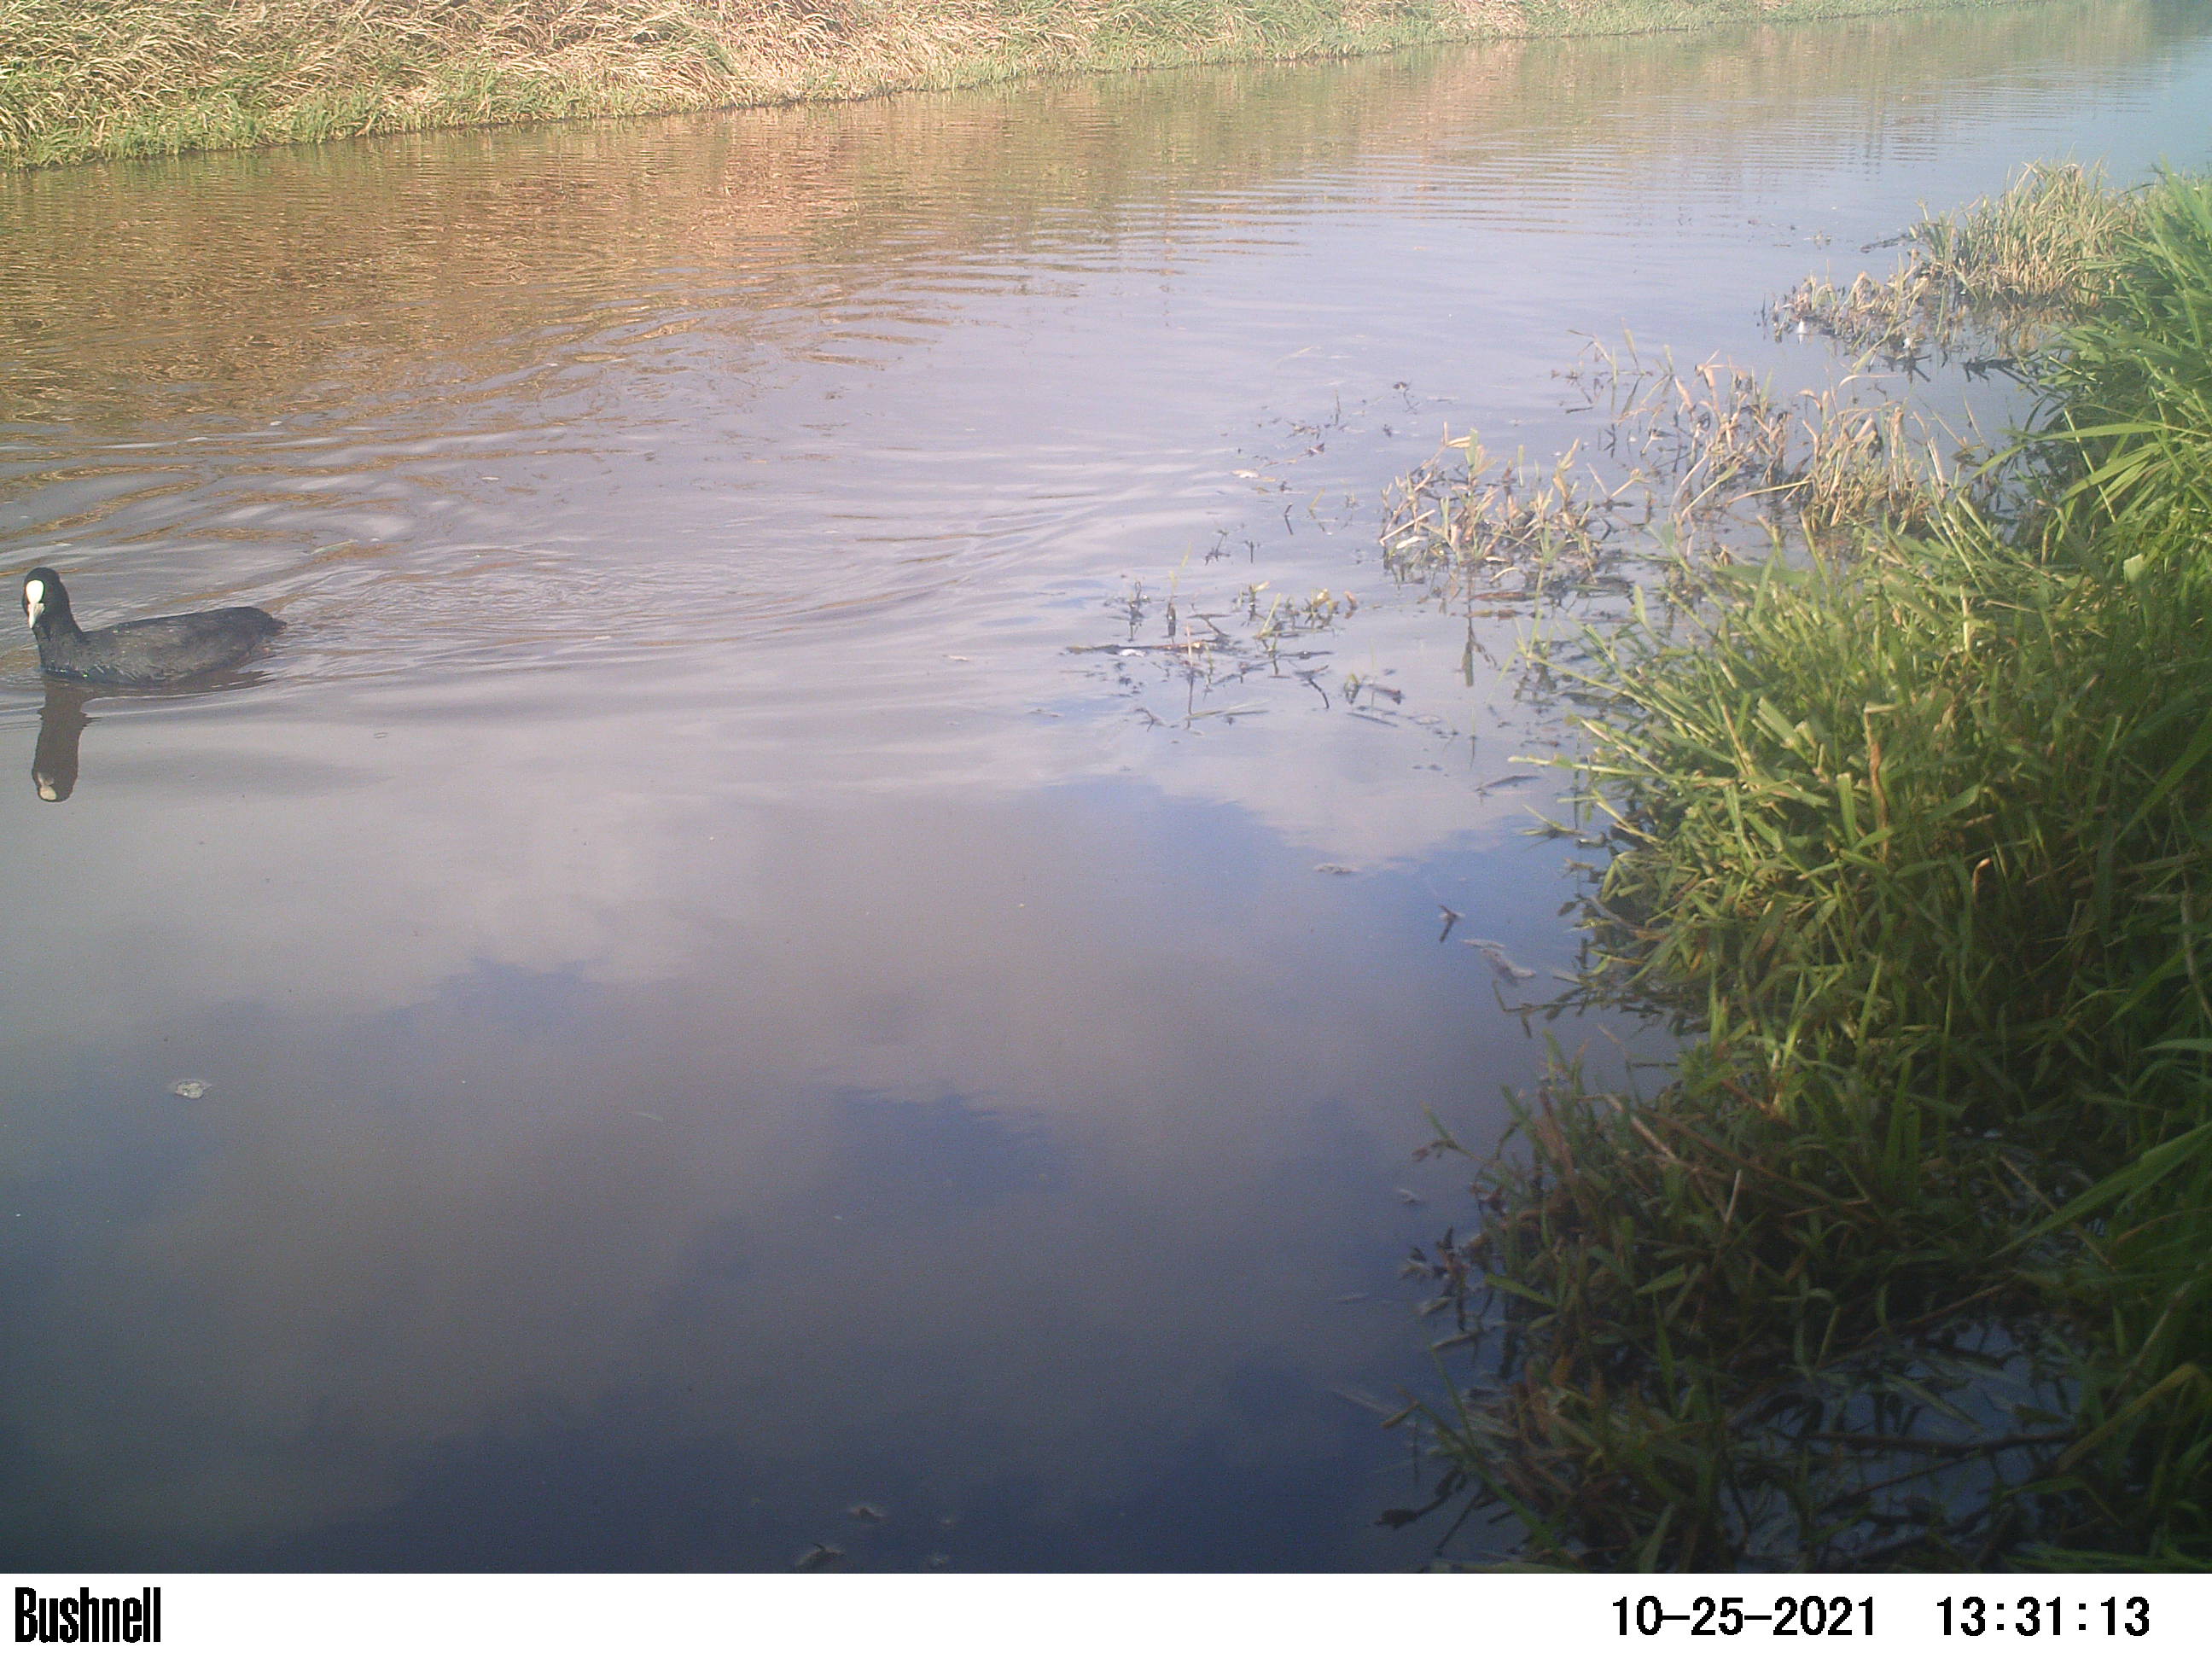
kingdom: Animalia
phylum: Chordata
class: Aves
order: Gruiformes
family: Rallidae
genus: Fulica
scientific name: Fulica atra
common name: Eurasian coot
